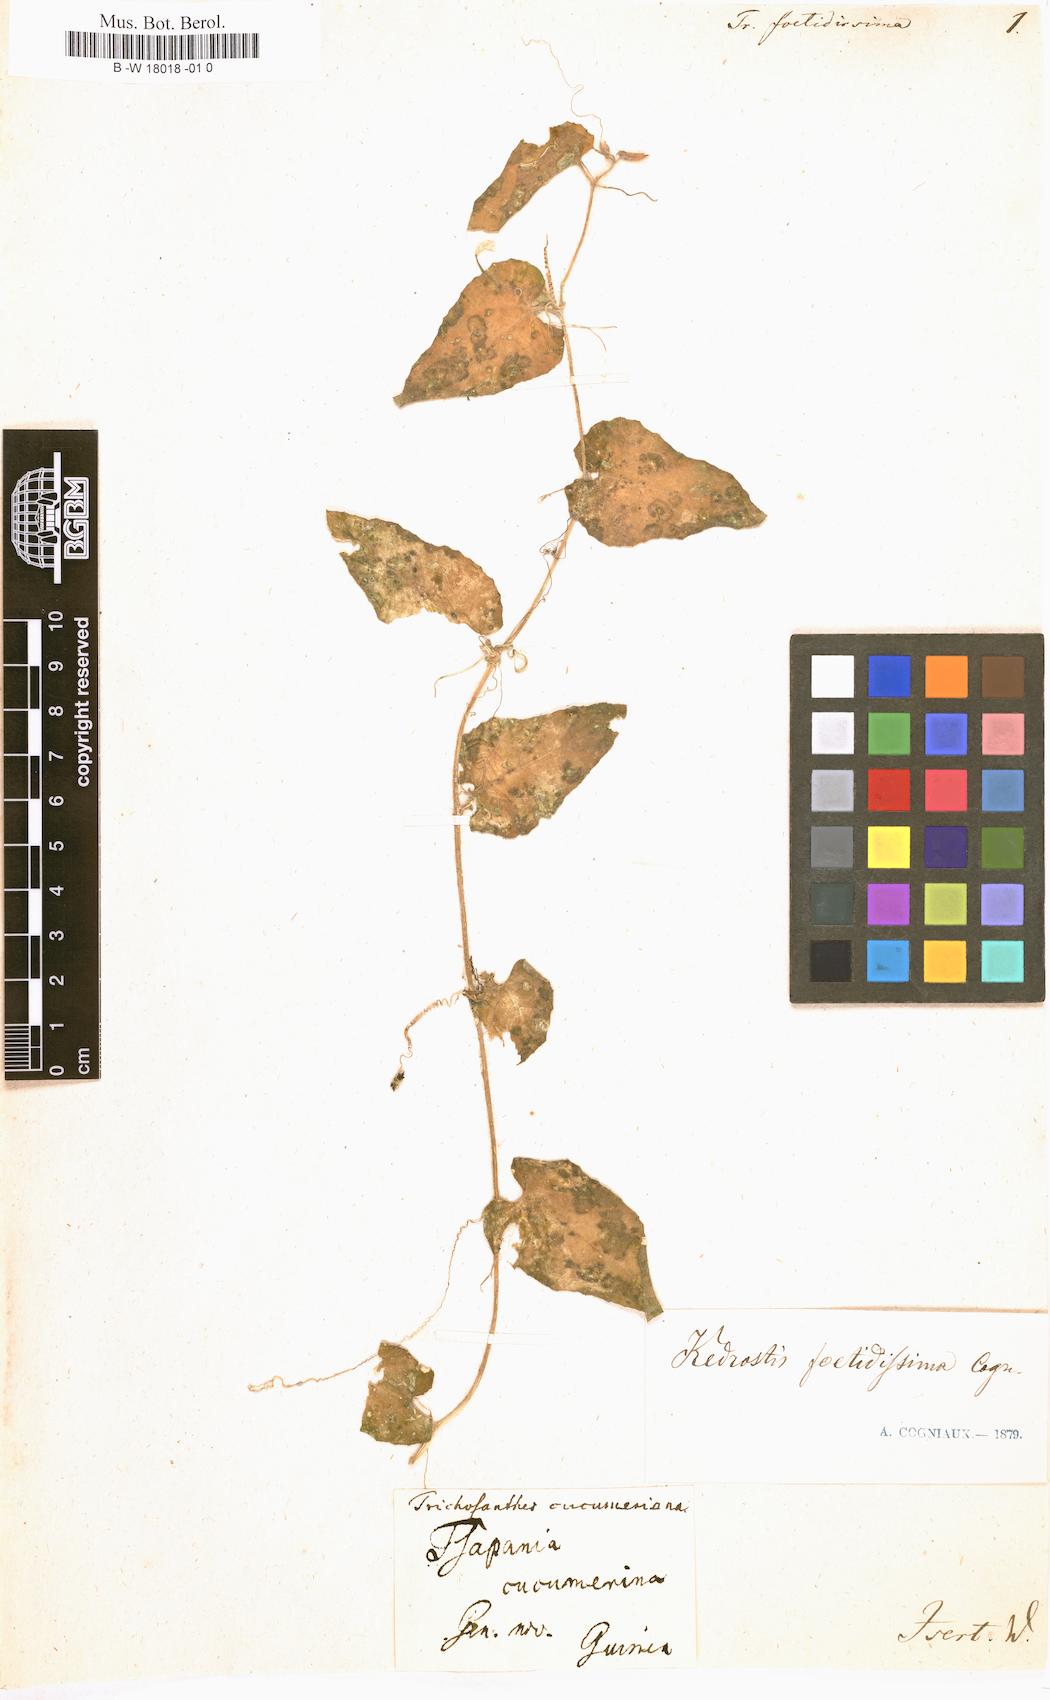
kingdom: Plantae
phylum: Tracheophyta
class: Magnoliopsida
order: Cucurbitales
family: Cucurbitaceae
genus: Kedrostis
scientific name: Kedrostis foetidissima
